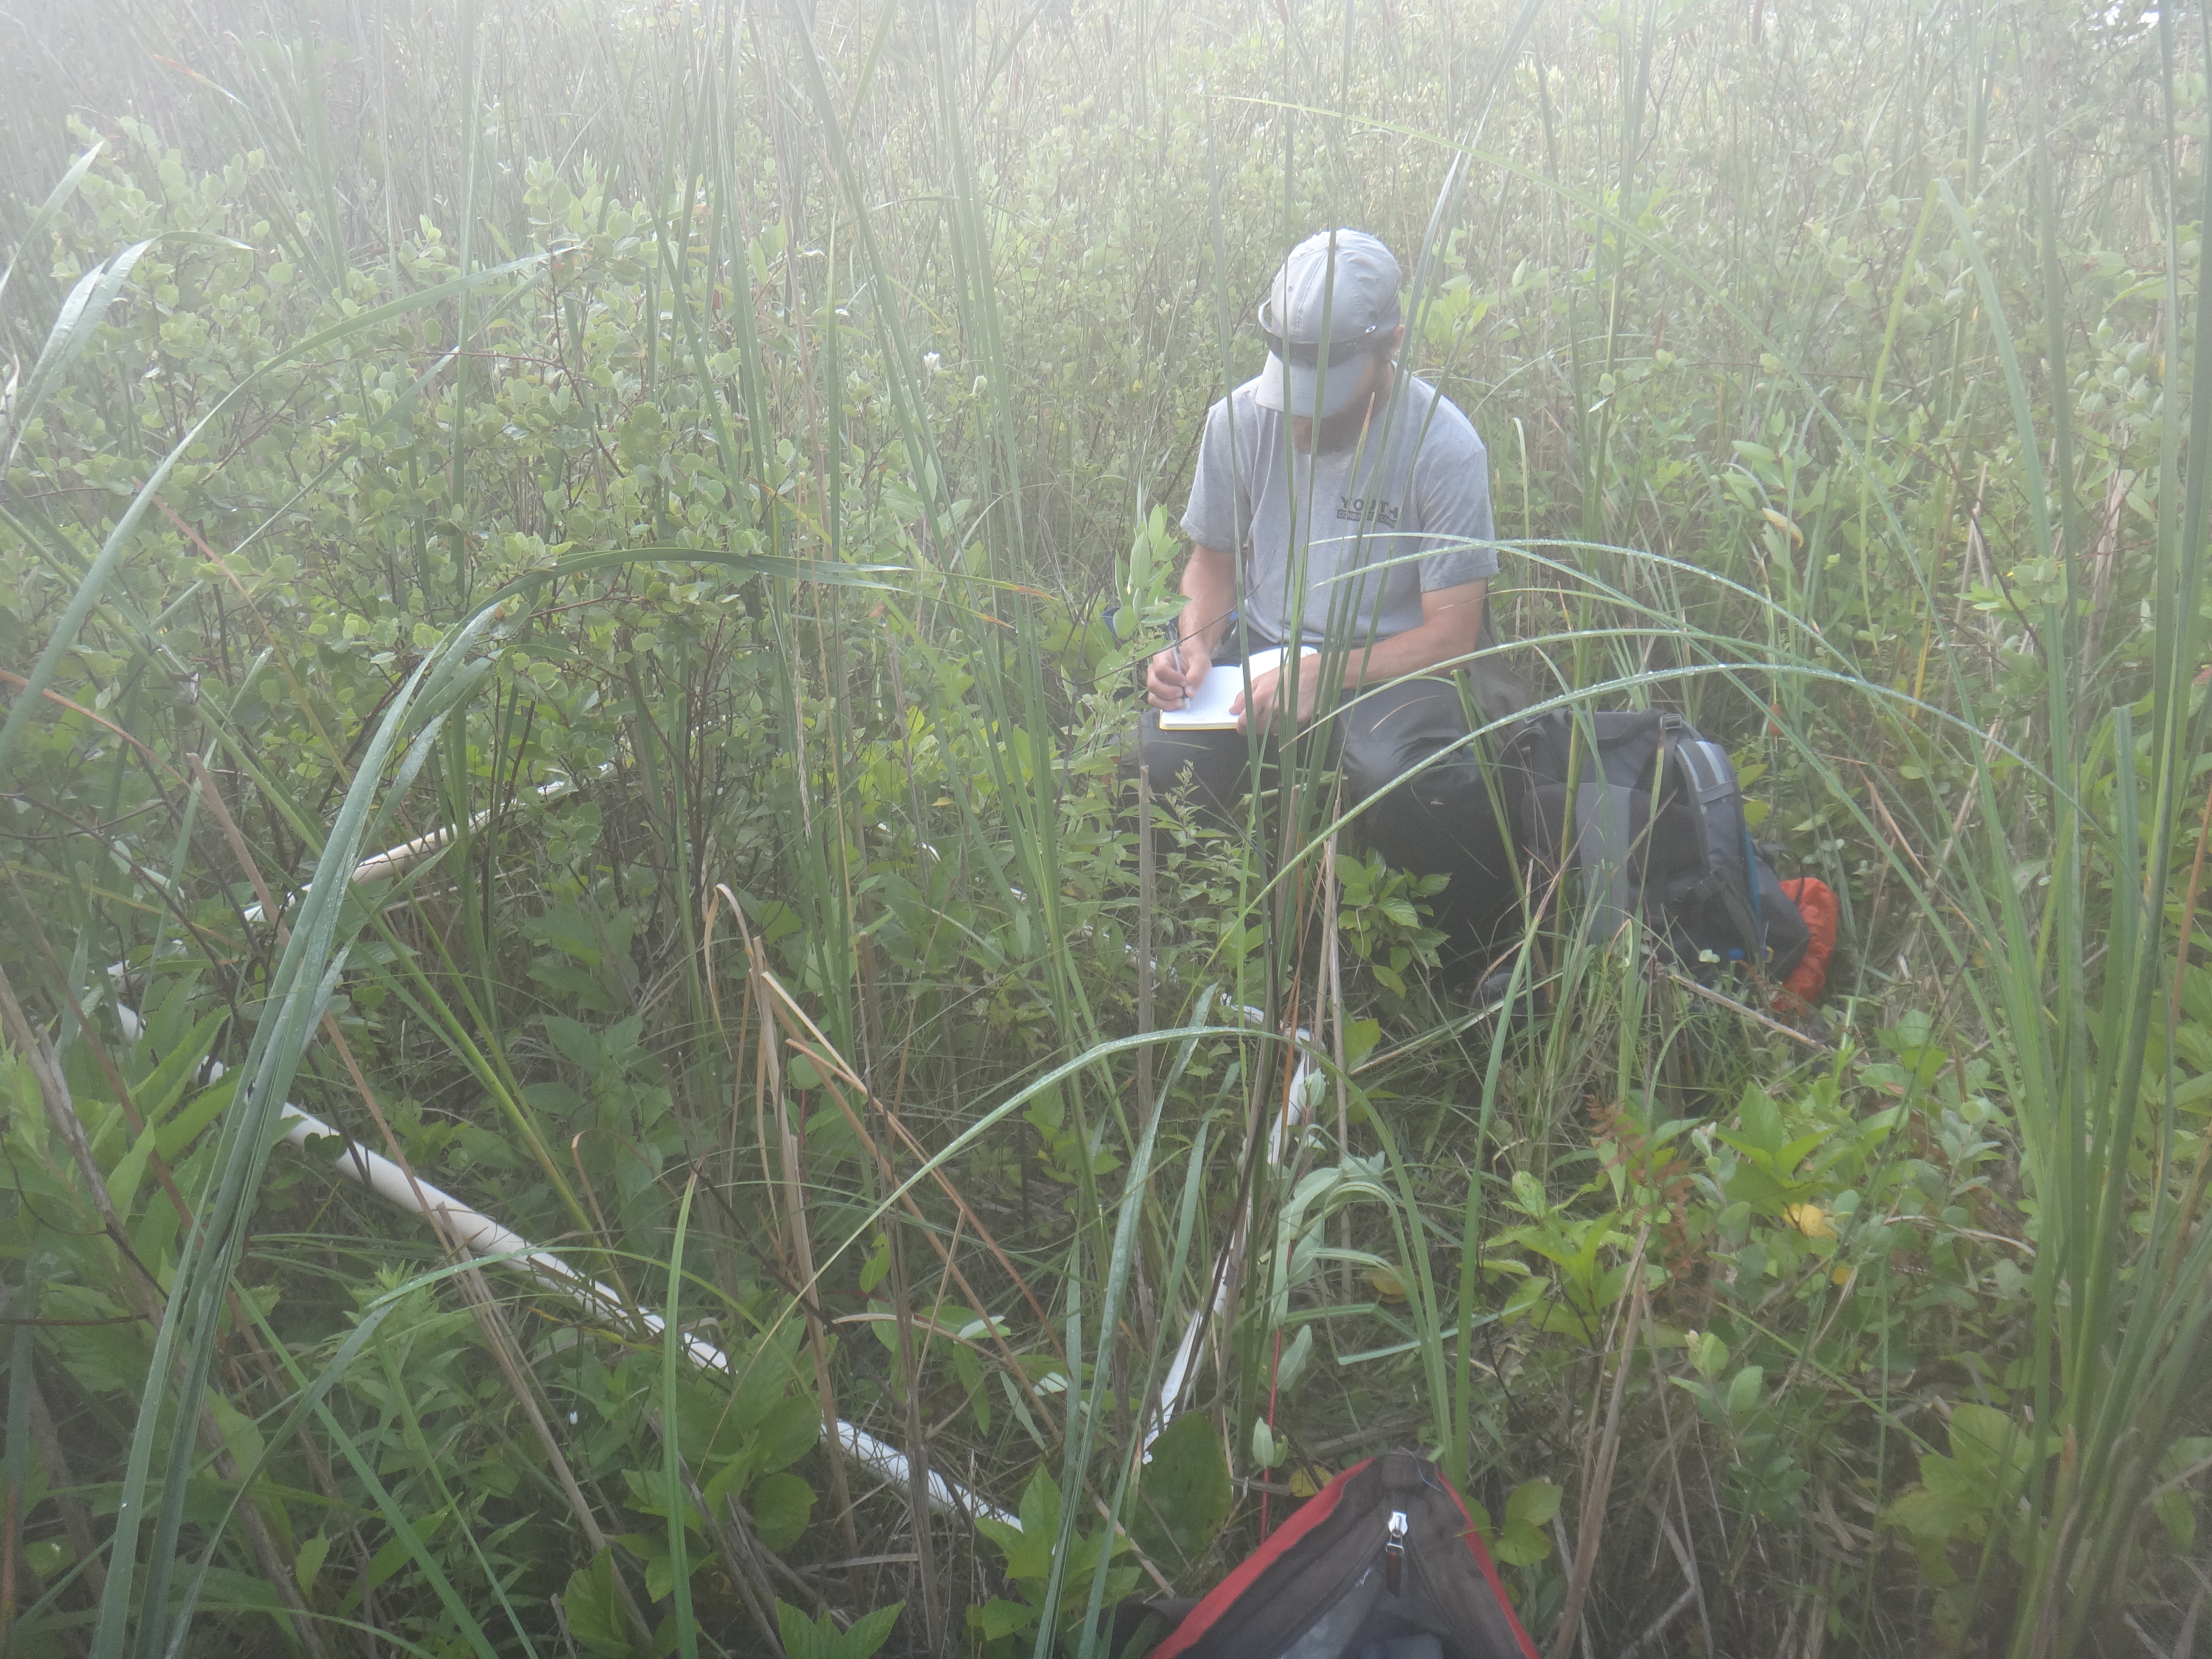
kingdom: Plantae
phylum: Tracheophyta
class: Magnoliopsida
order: Fagales
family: Betulaceae
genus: Betula
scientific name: Betula pumila
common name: Bog birch
